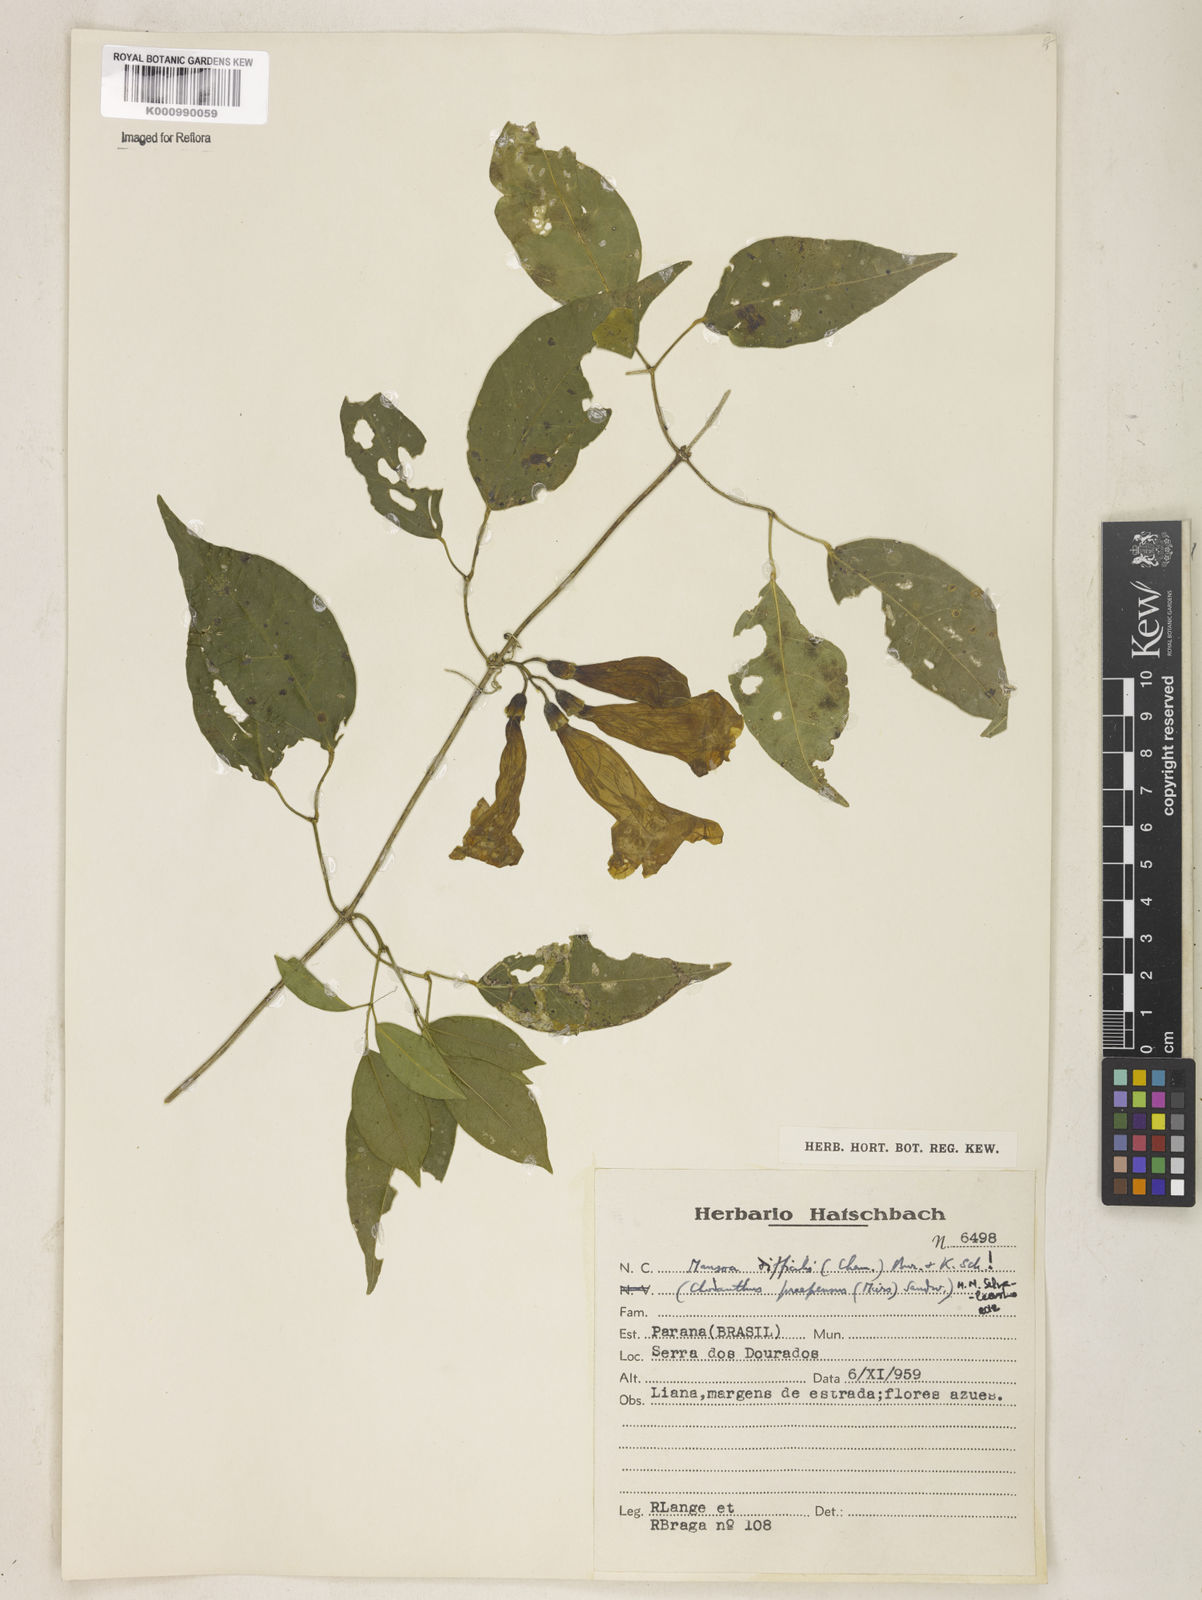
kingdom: Plantae
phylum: Tracheophyta
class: Magnoliopsida
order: Lamiales
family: Bignoniaceae
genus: Mansoa
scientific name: Mansoa difficilis
